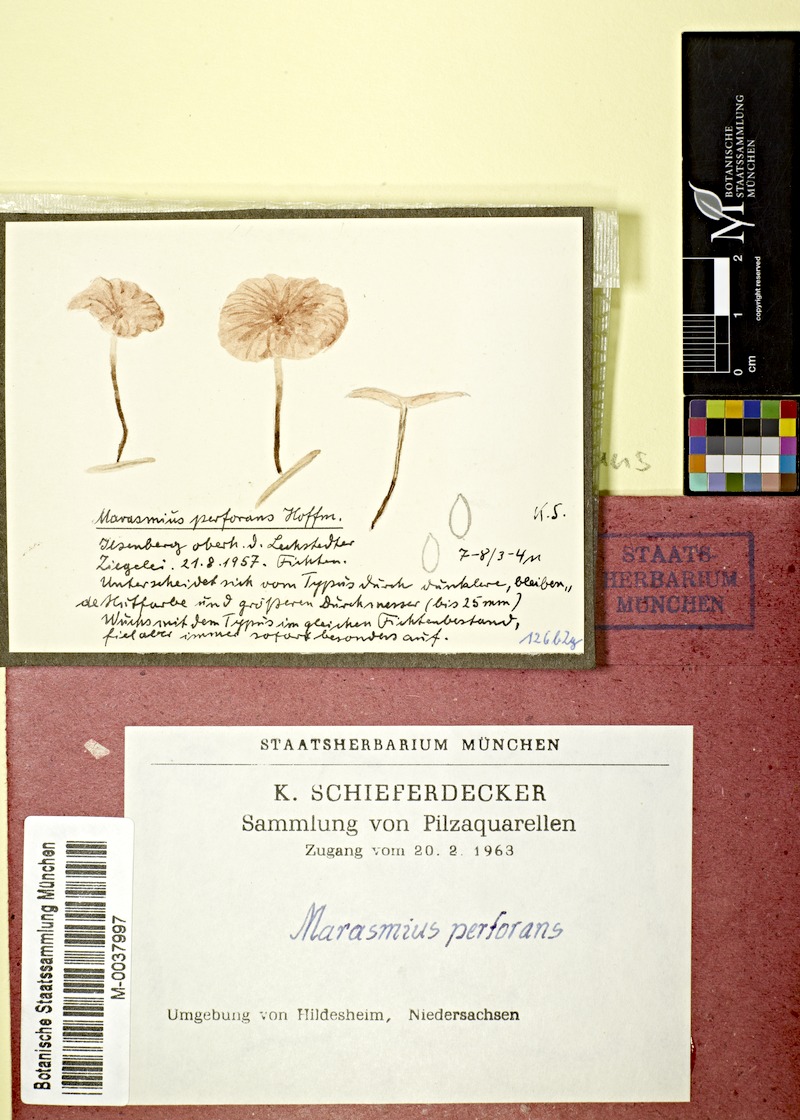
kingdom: Fungi
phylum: Basidiomycota
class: Agaricomycetes
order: Agaricales
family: Omphalotaceae
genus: Paragymnopus
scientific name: Paragymnopus perforans
